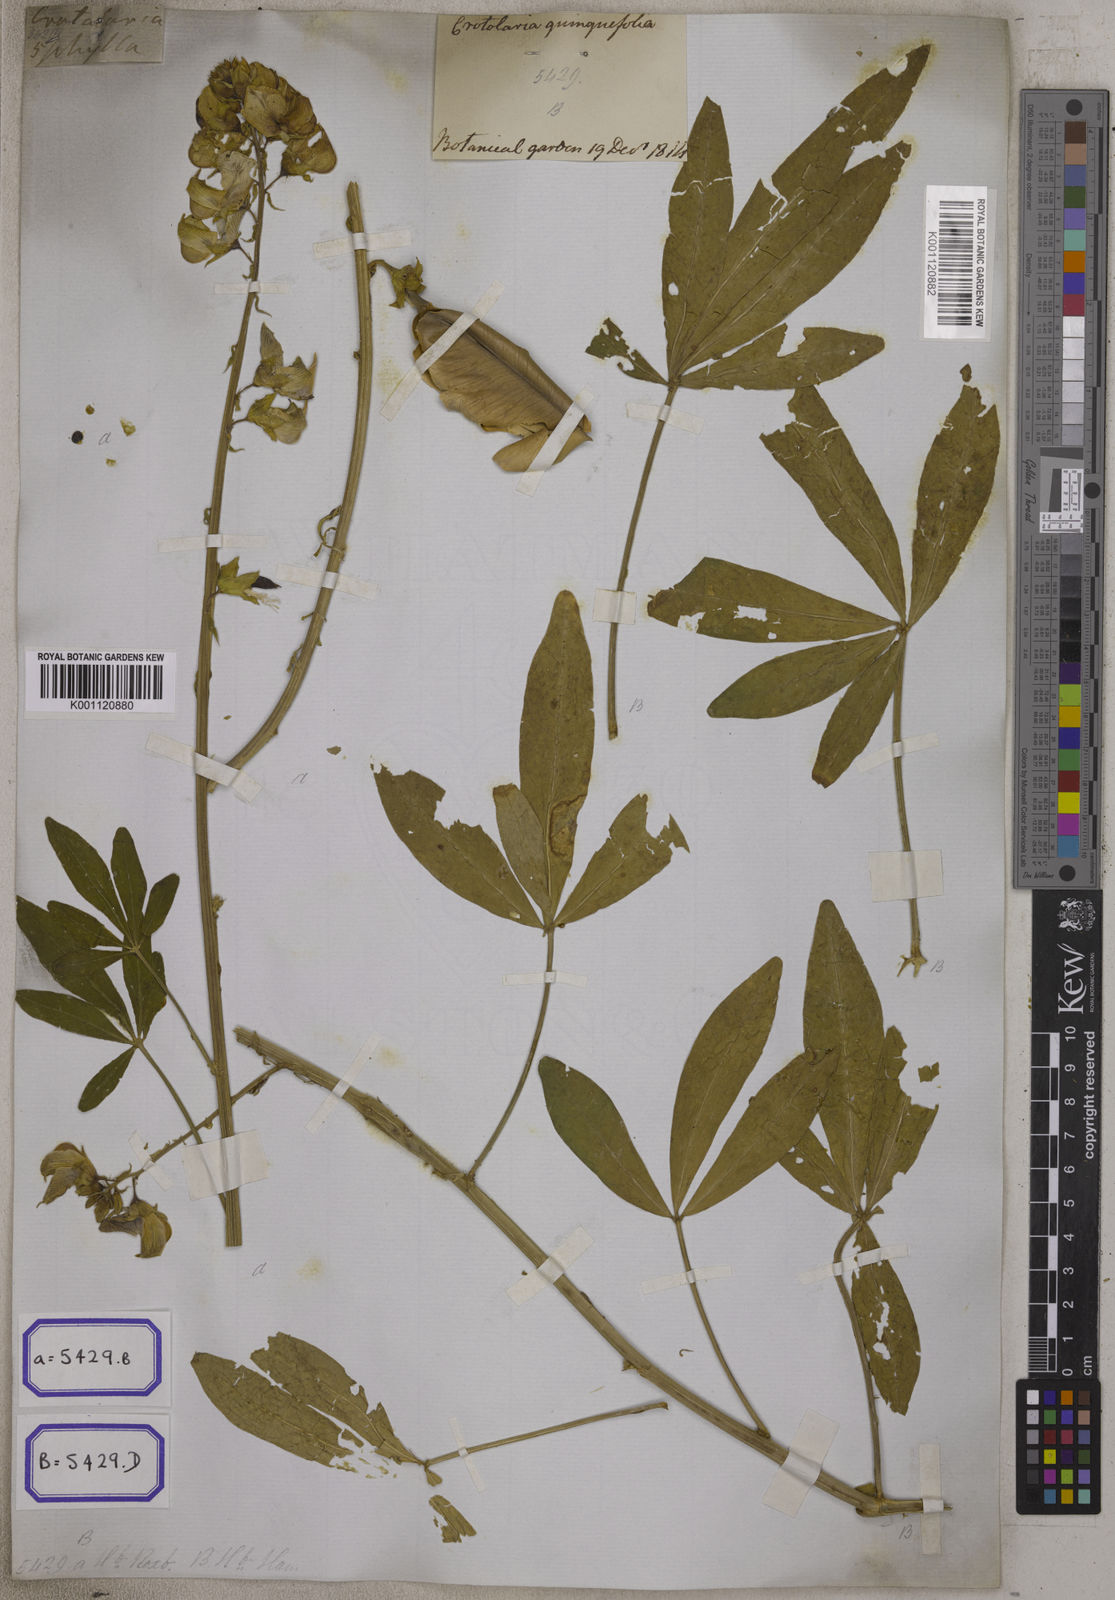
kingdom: Plantae
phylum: Tracheophyta
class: Magnoliopsida
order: Fabales
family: Fabaceae
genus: Crotalaria
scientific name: Crotalaria quinquefolia
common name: Five-leaf crotalaria
